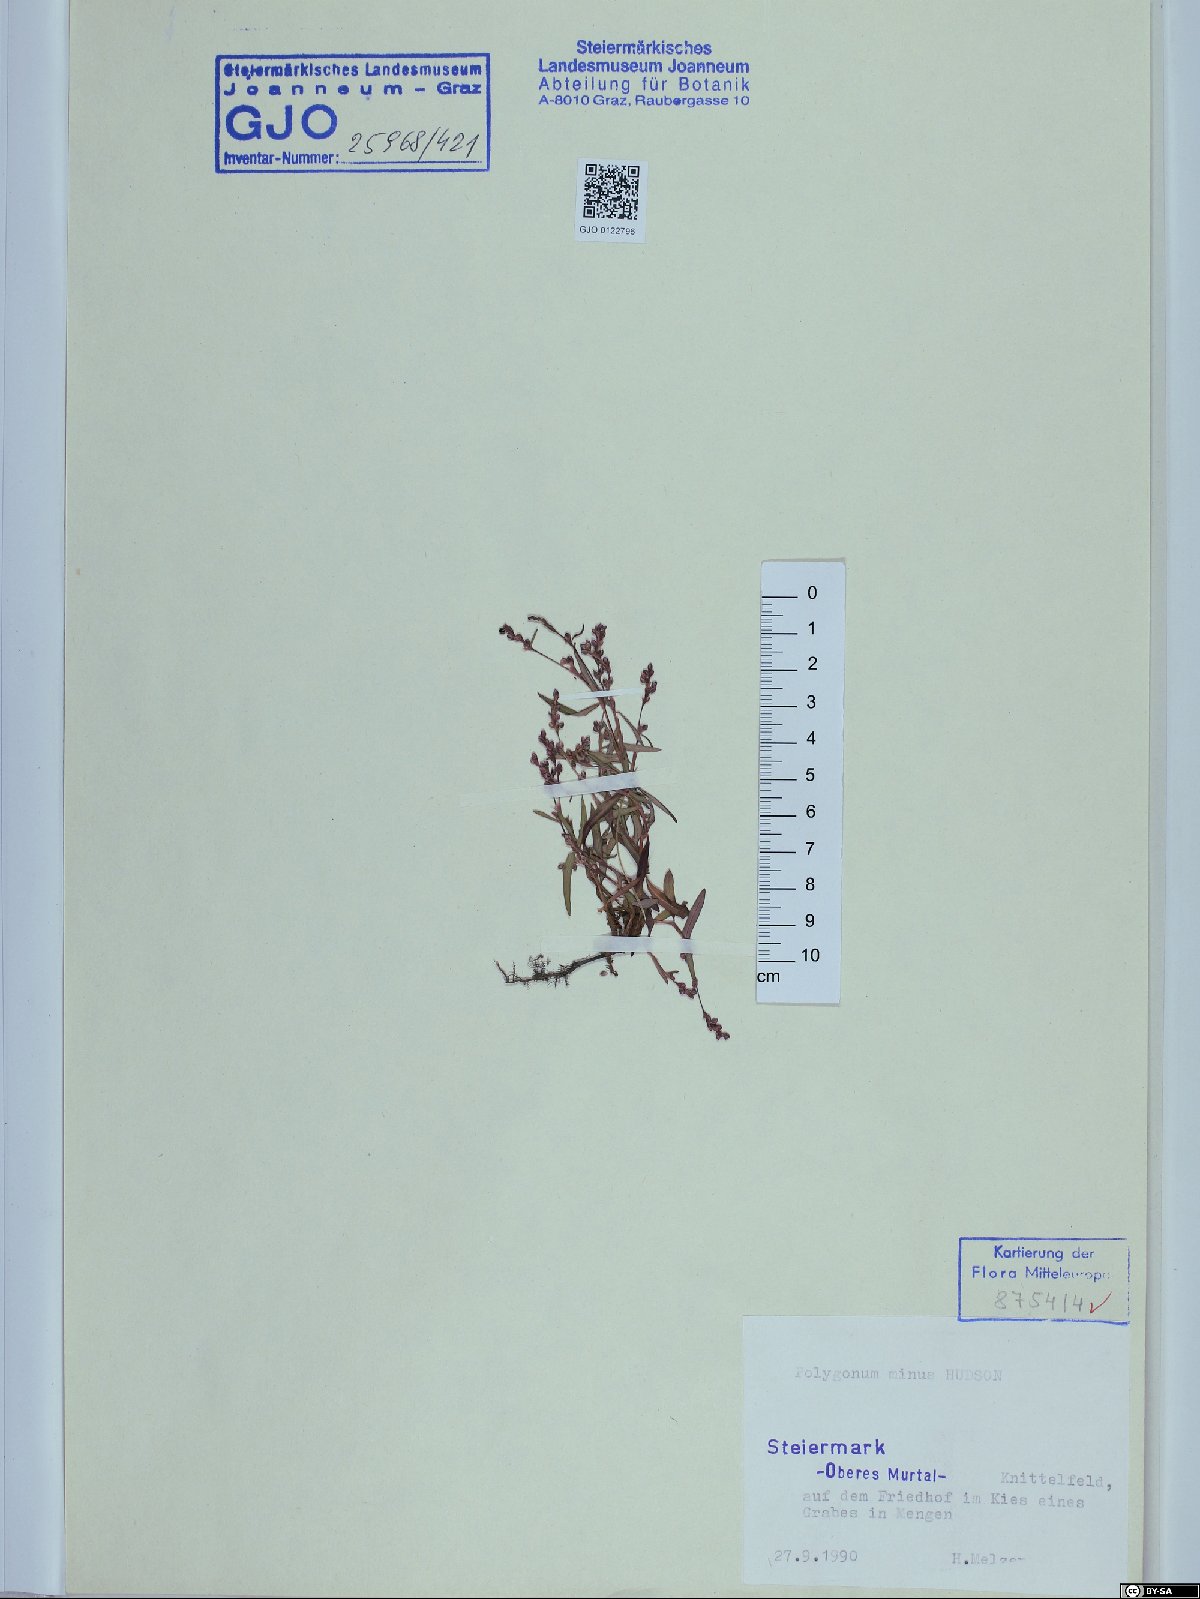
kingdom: Plantae
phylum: Tracheophyta
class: Magnoliopsida
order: Caryophyllales
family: Polygonaceae
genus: Persicaria
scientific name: Persicaria minor
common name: Small water-pepper
